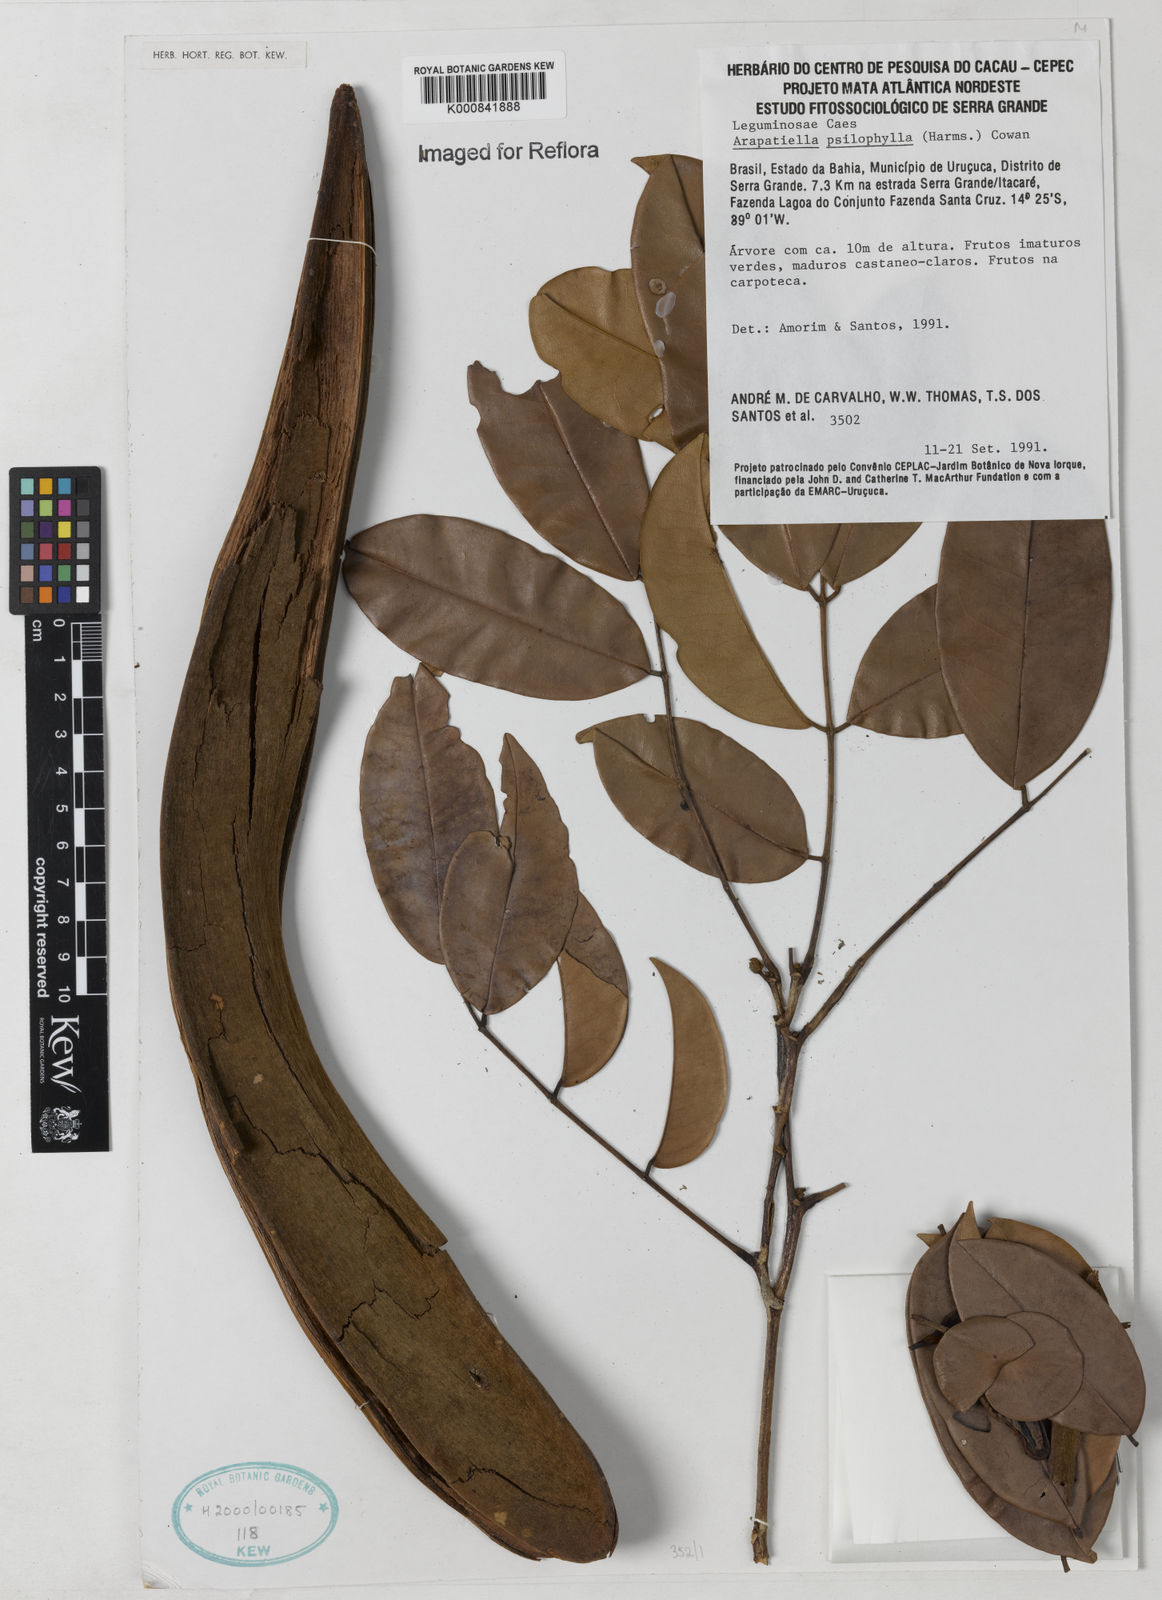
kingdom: Plantae
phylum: Tracheophyta
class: Magnoliopsida
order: Fabales
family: Fabaceae
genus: Arapatiella
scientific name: Arapatiella psilophylla
